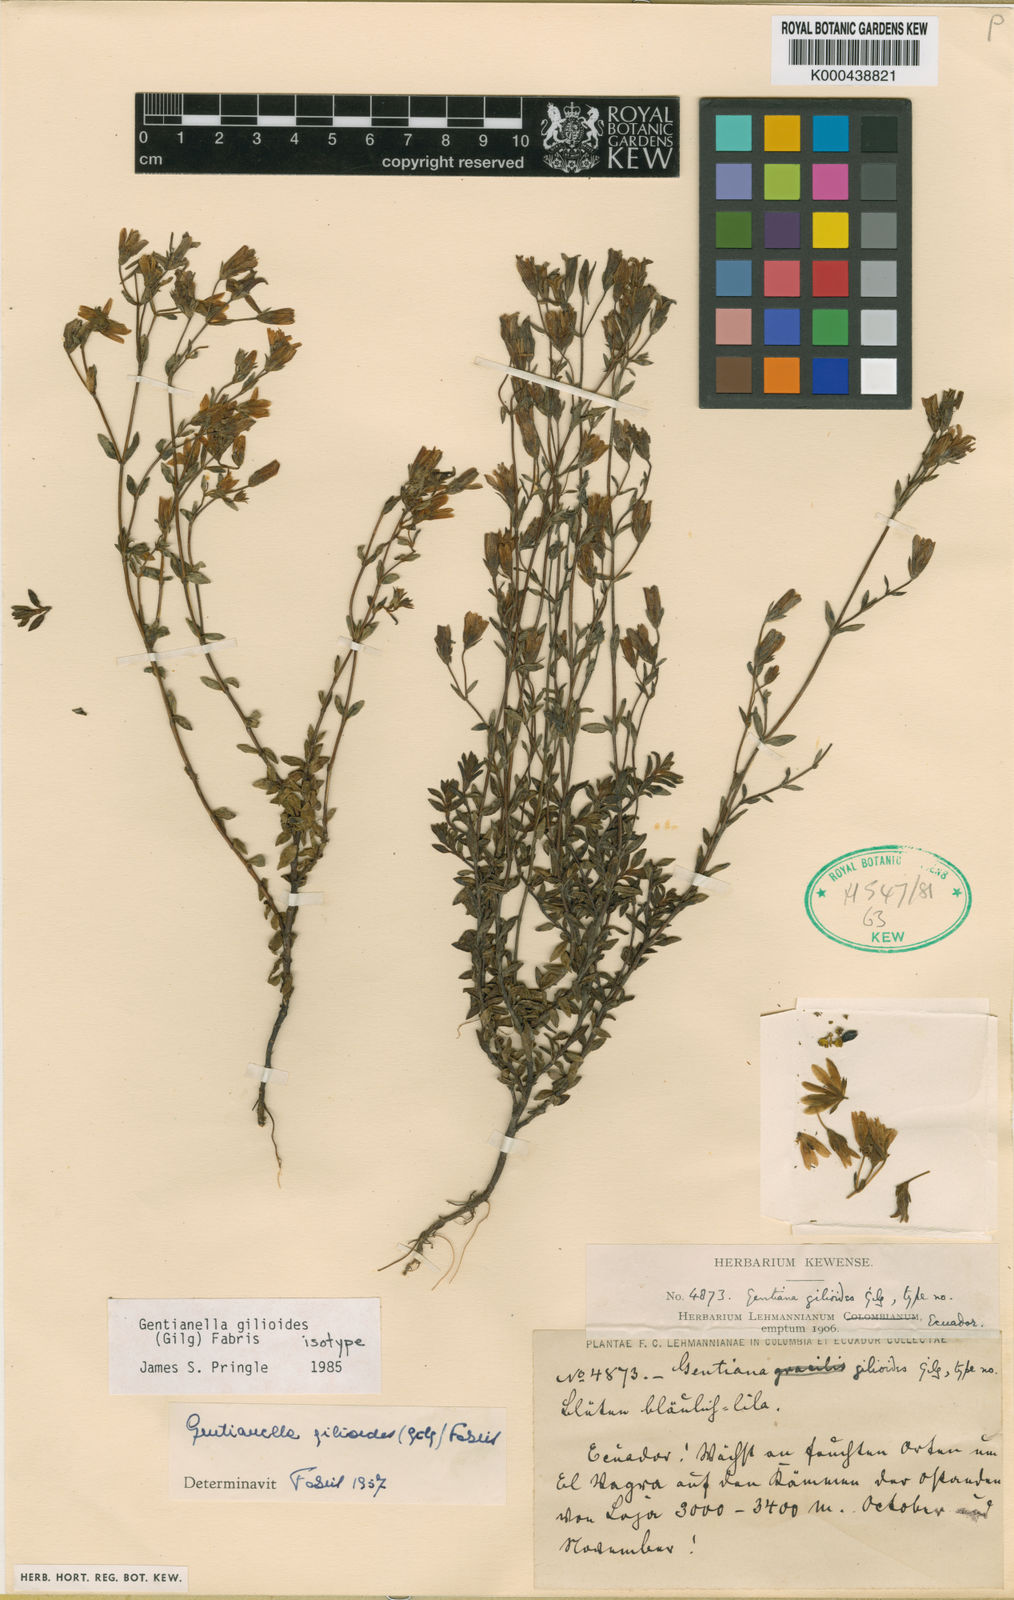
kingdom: Plantae
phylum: Tracheophyta
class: Magnoliopsida
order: Gentianales
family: Gentianaceae
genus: Gentianella
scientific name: Gentianella gilioides
